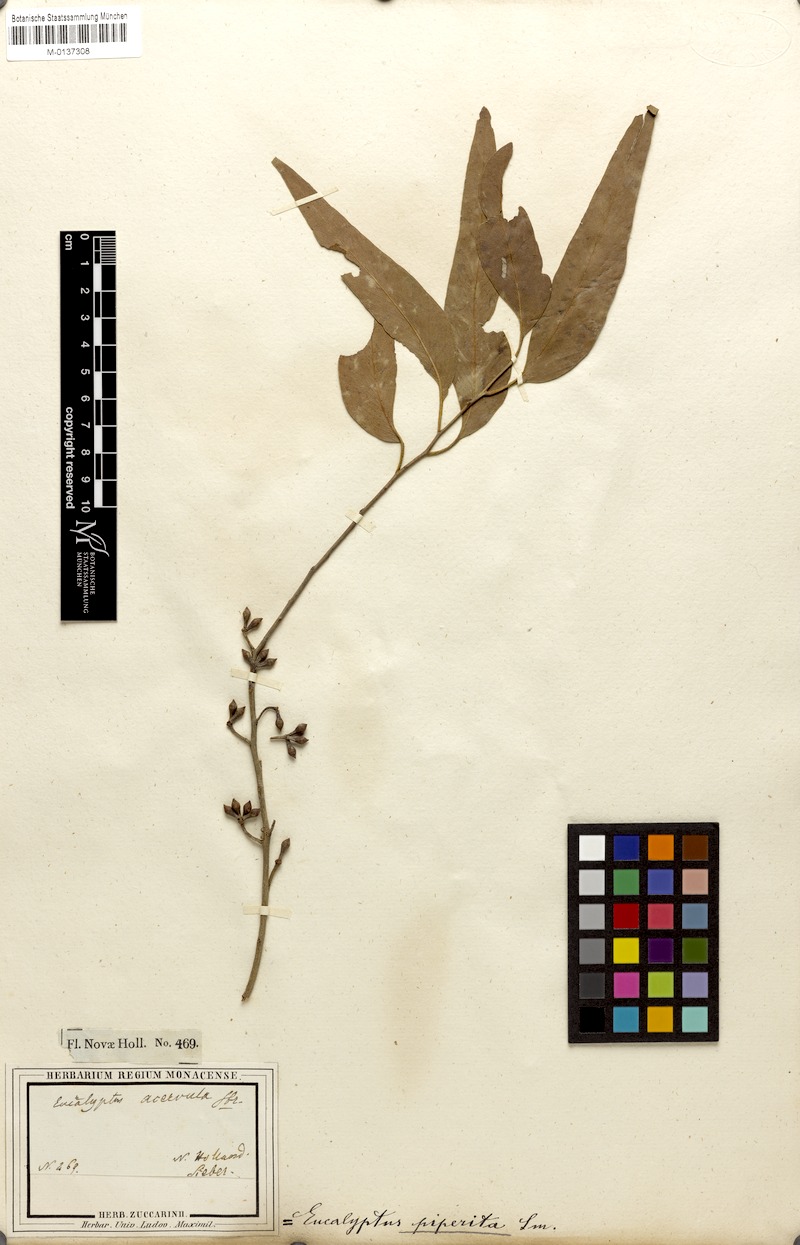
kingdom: Plantae
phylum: Tracheophyta
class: Magnoliopsida
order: Myrtales
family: Myrtaceae
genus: Eucalyptus
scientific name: Eucalyptus eugenioides
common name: Narrow-leaved-stringybark
